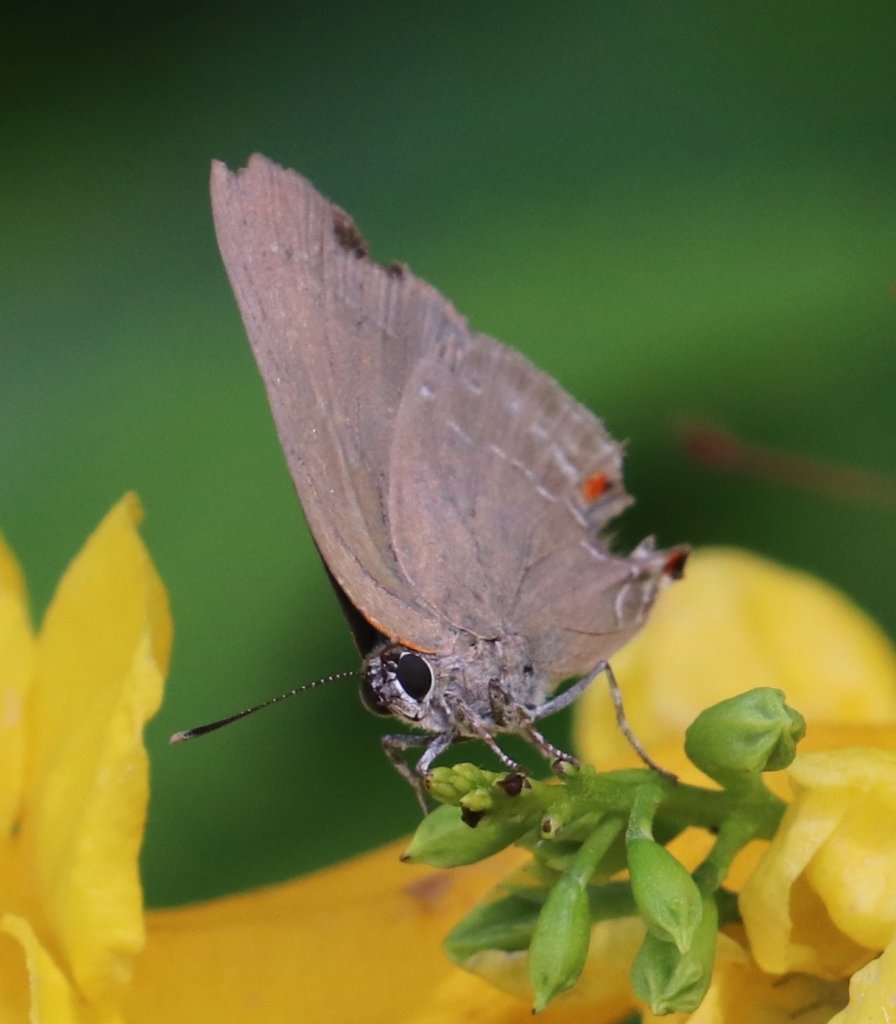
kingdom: Animalia
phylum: Arthropoda
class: Insecta
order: Lepidoptera
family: Lycaenidae
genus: Michaelus
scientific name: Michaelus ira
